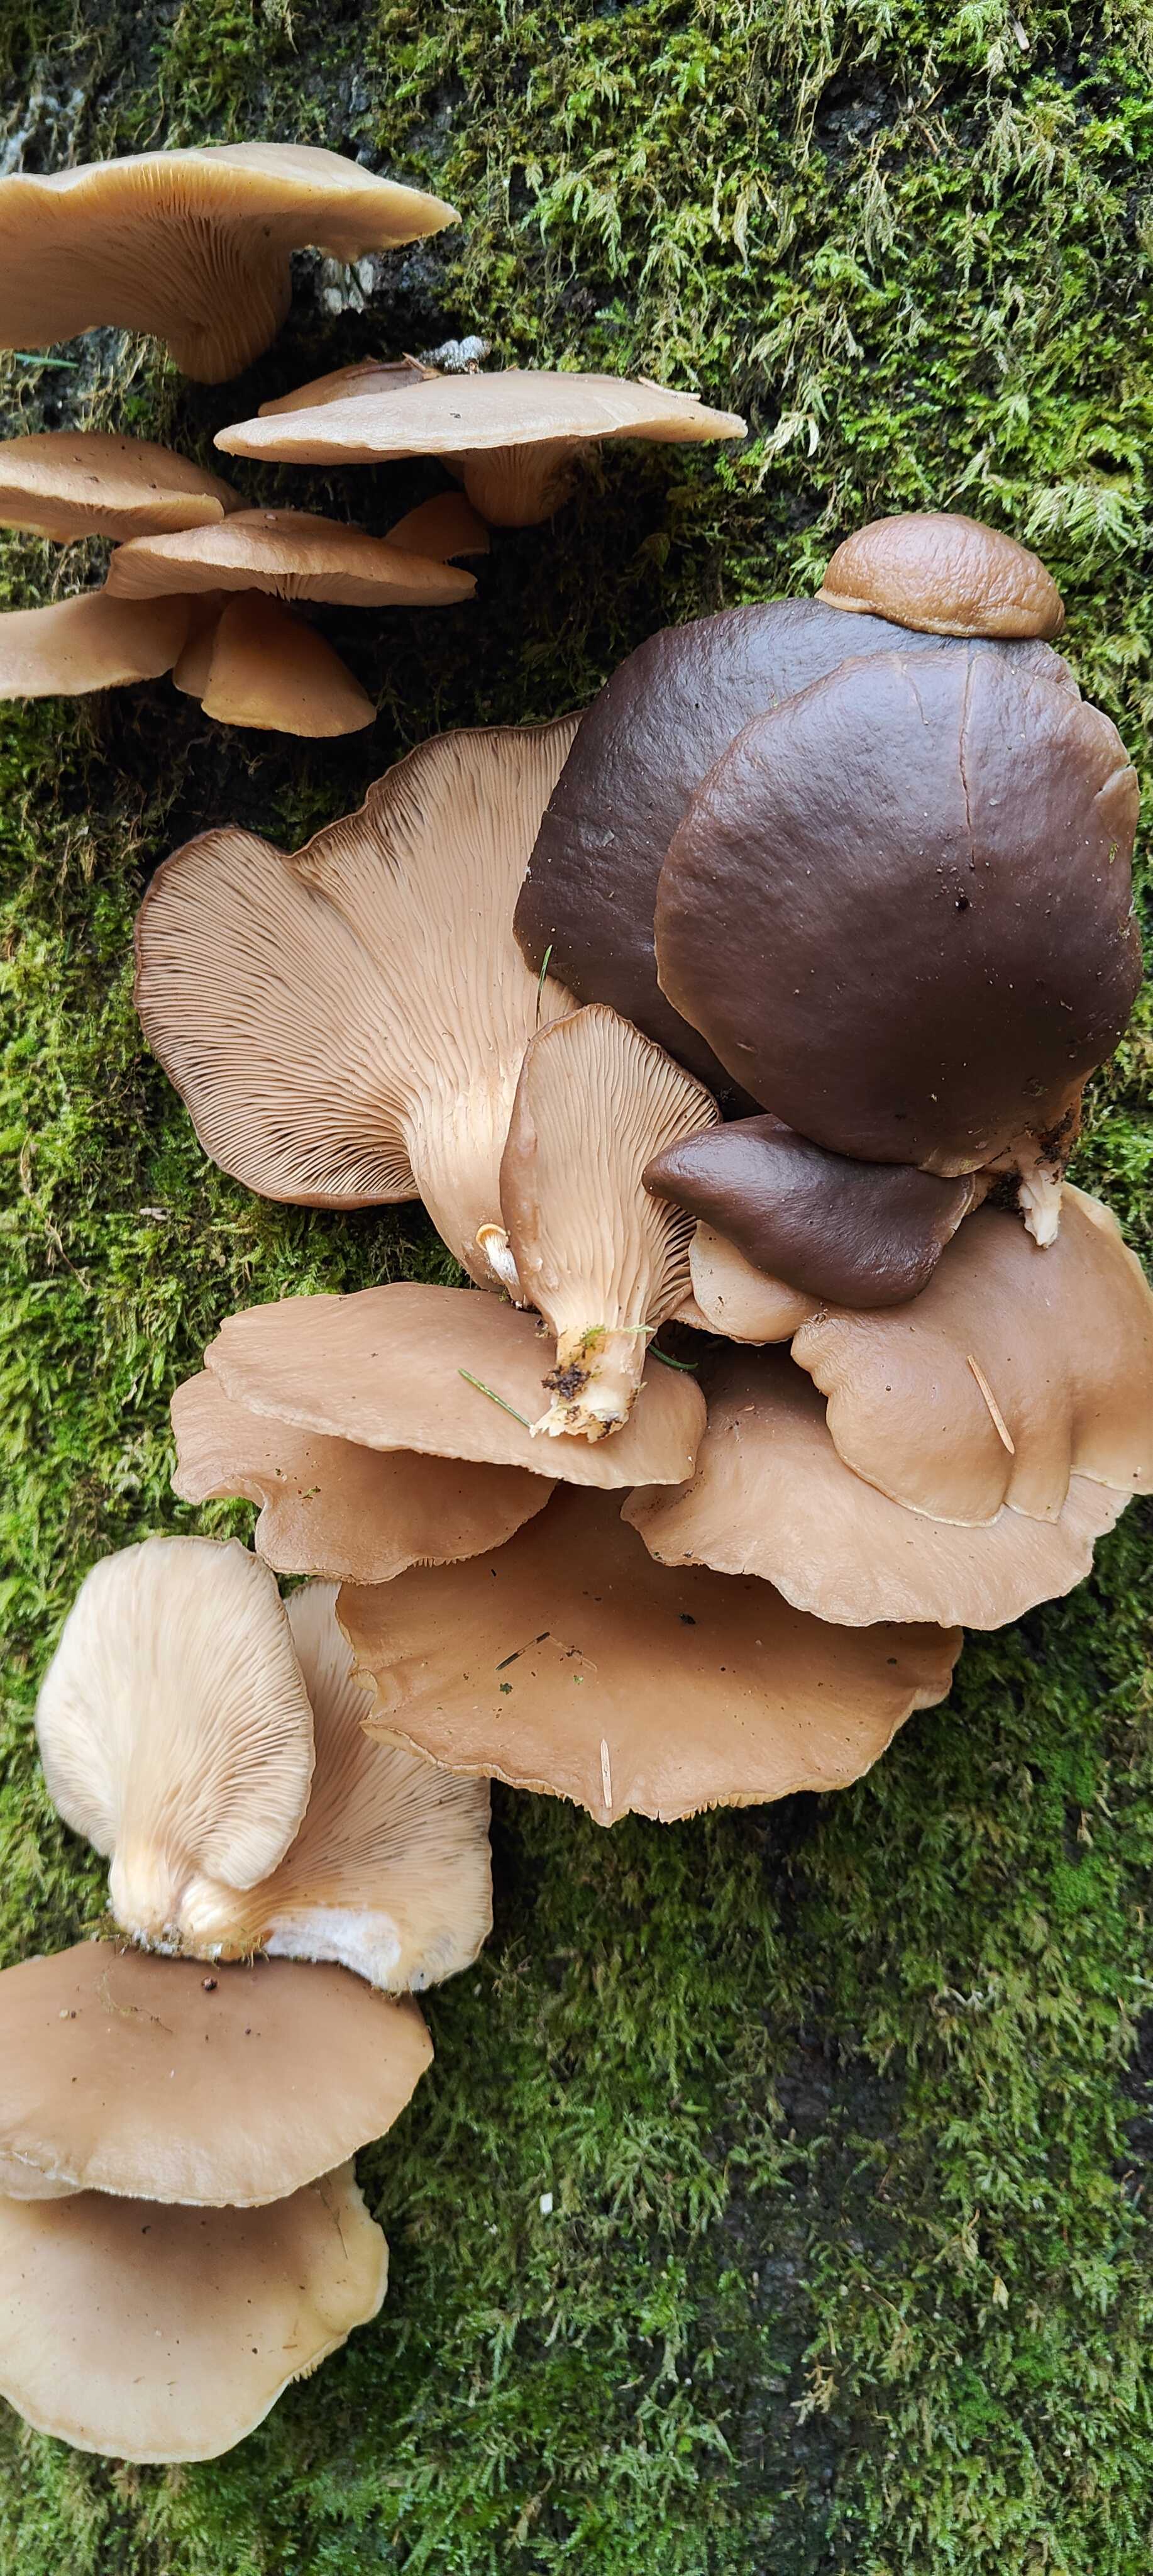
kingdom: Fungi
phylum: Basidiomycota
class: Agaricomycetes
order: Agaricales
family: Pleurotaceae
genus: Pleurotus
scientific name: Pleurotus ostreatus
